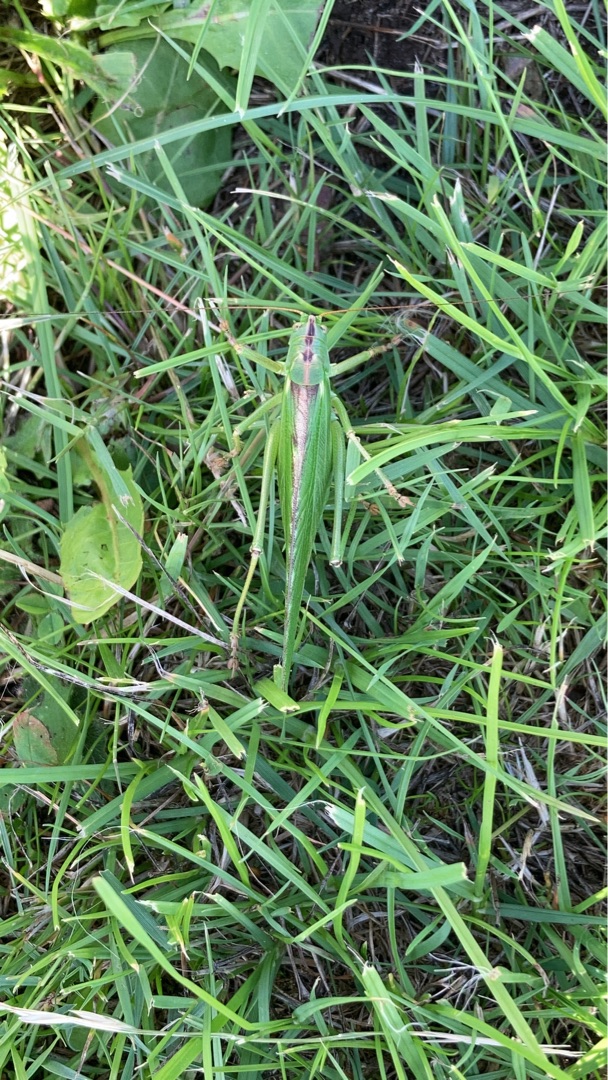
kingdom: Animalia
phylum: Arthropoda
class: Insecta
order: Orthoptera
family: Tettigoniidae
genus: Tettigonia
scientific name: Tettigonia viridissima
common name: Stor grøn løvgræshoppe
